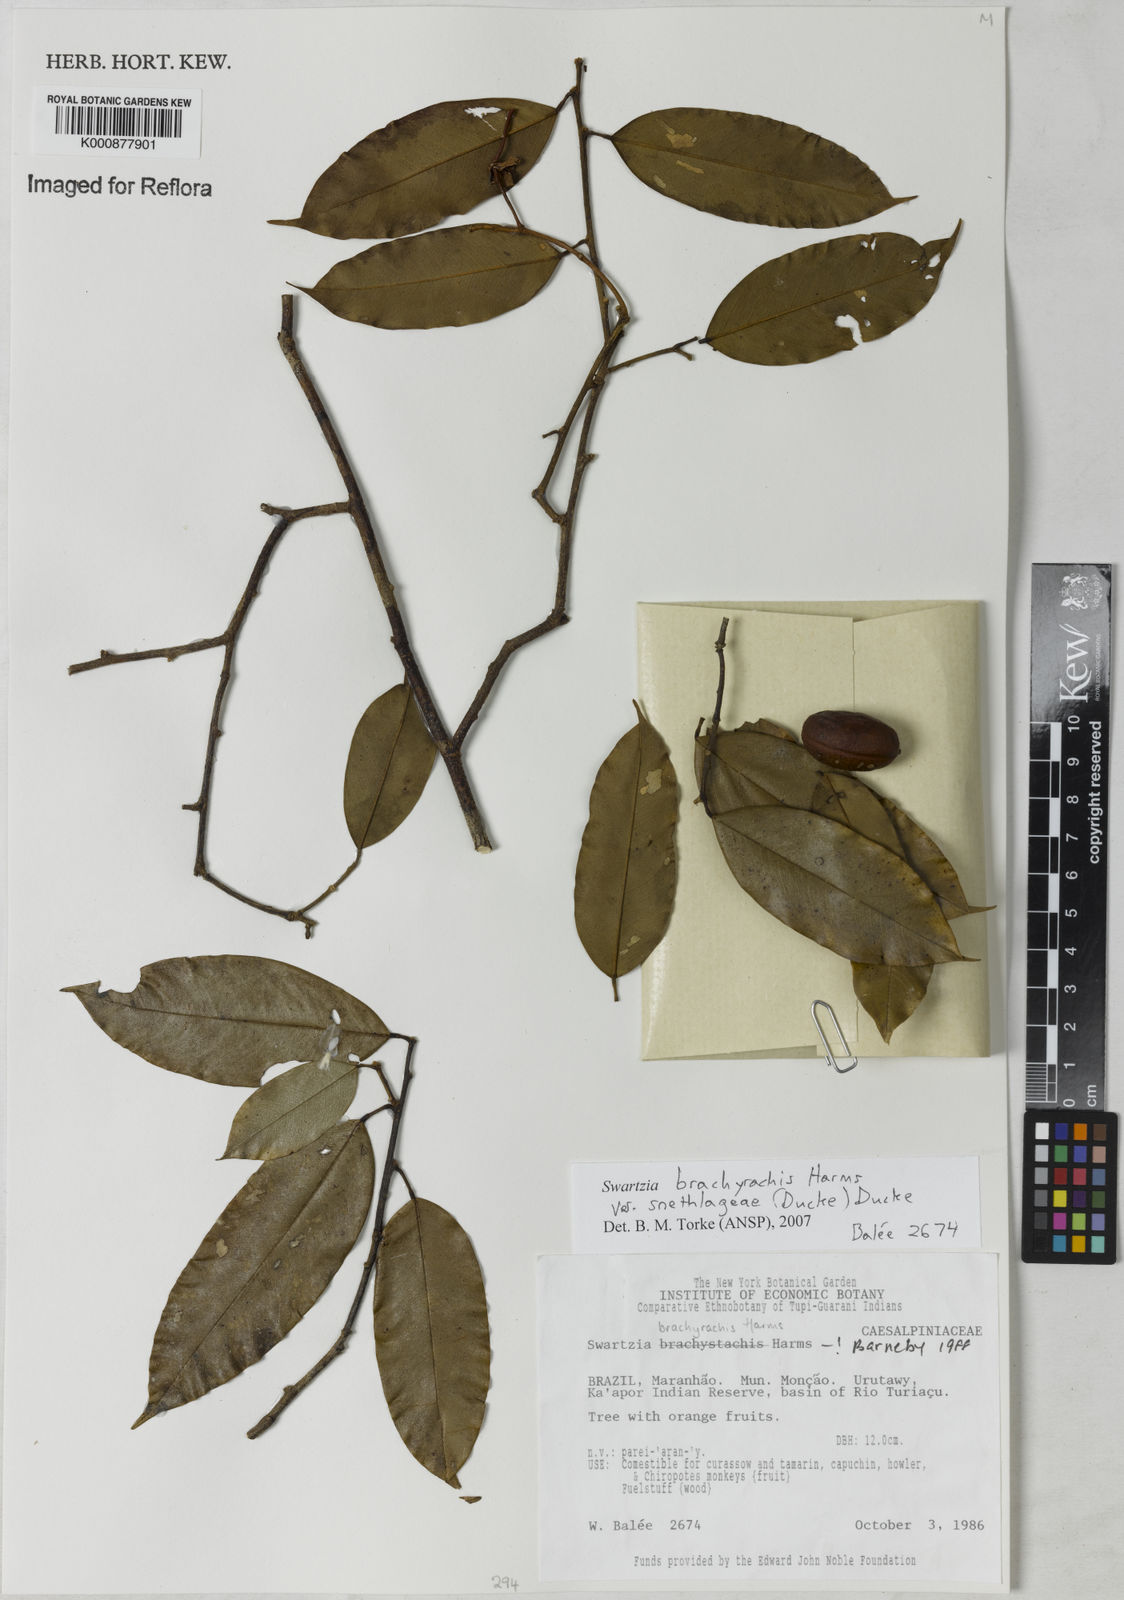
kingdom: Plantae
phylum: Tracheophyta
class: Magnoliopsida
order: Fabales
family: Fabaceae
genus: Swartzia
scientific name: Swartzia
